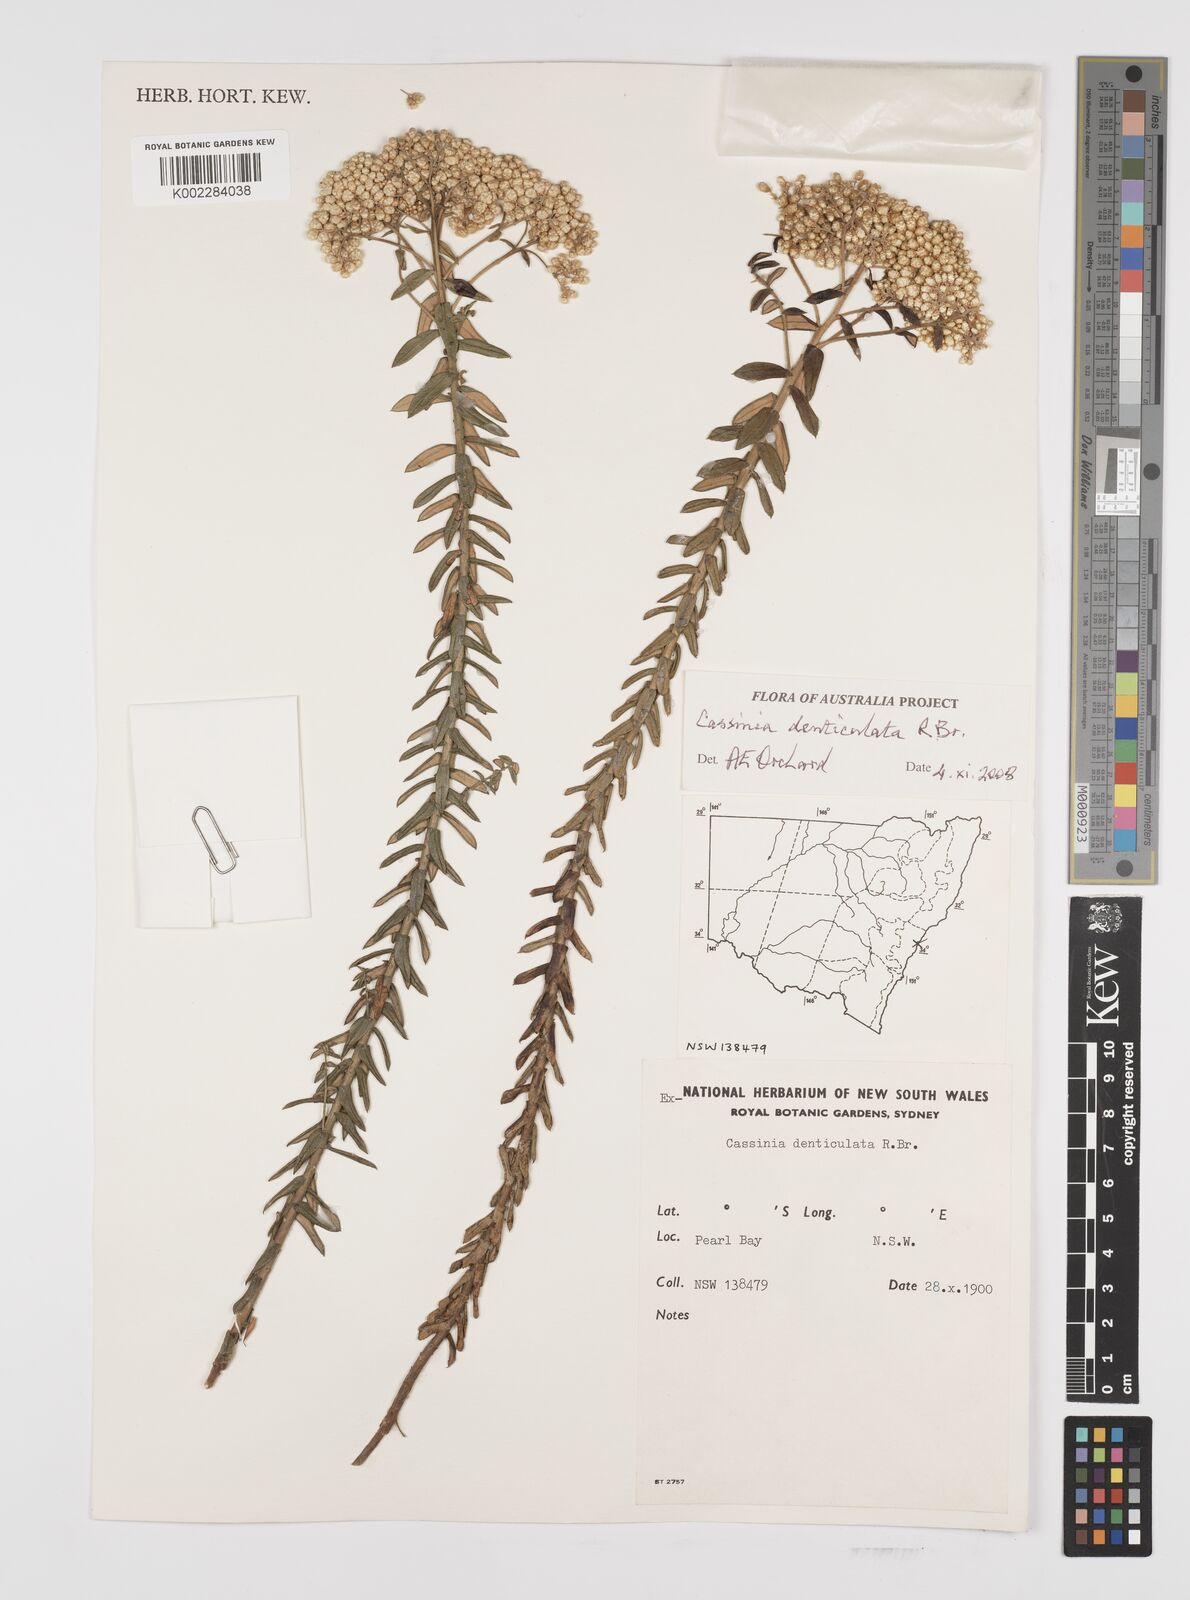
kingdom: Plantae
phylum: Tracheophyta
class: Magnoliopsida
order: Asterales
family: Asteraceae
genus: Cassinia
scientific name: Cassinia denticulata
